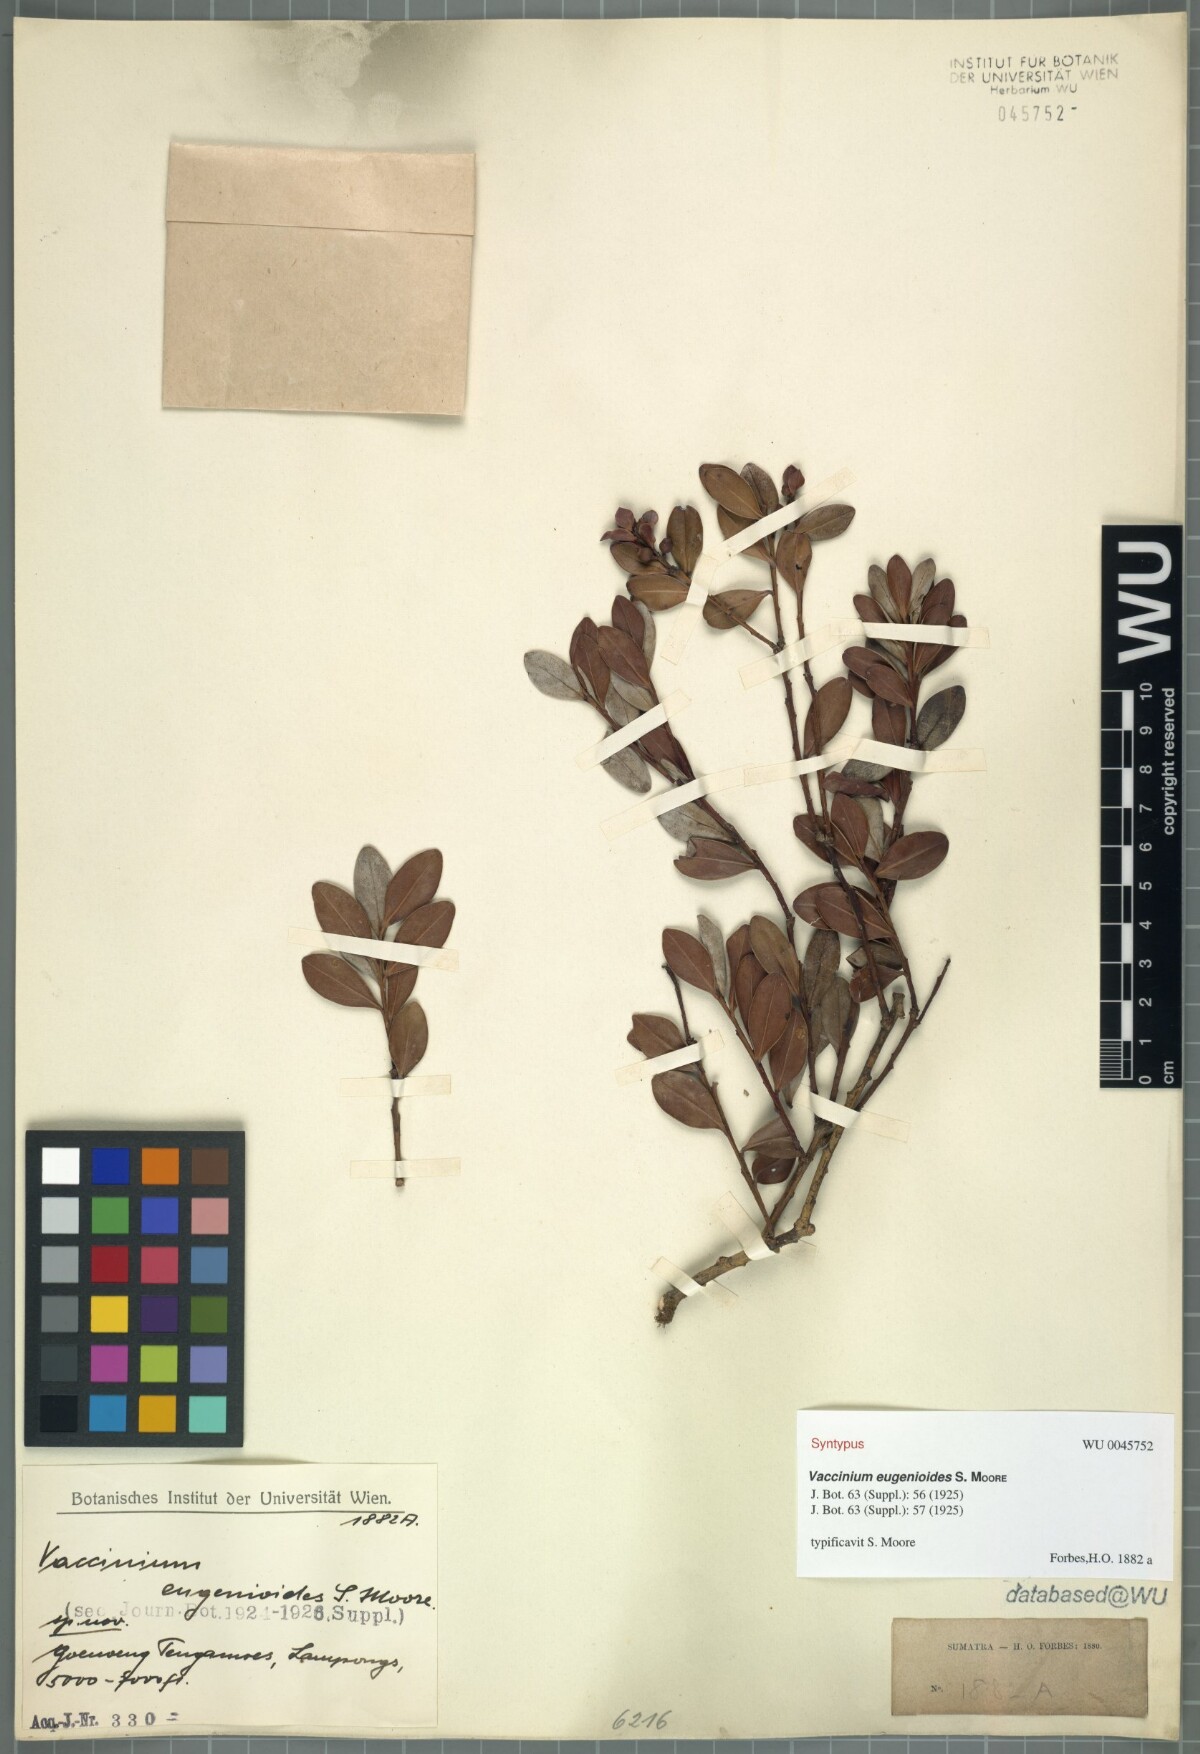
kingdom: Plantae
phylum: Tracheophyta
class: Magnoliopsida
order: Ericales
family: Ericaceae
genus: Vaccinium
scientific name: Vaccinium korinchense
